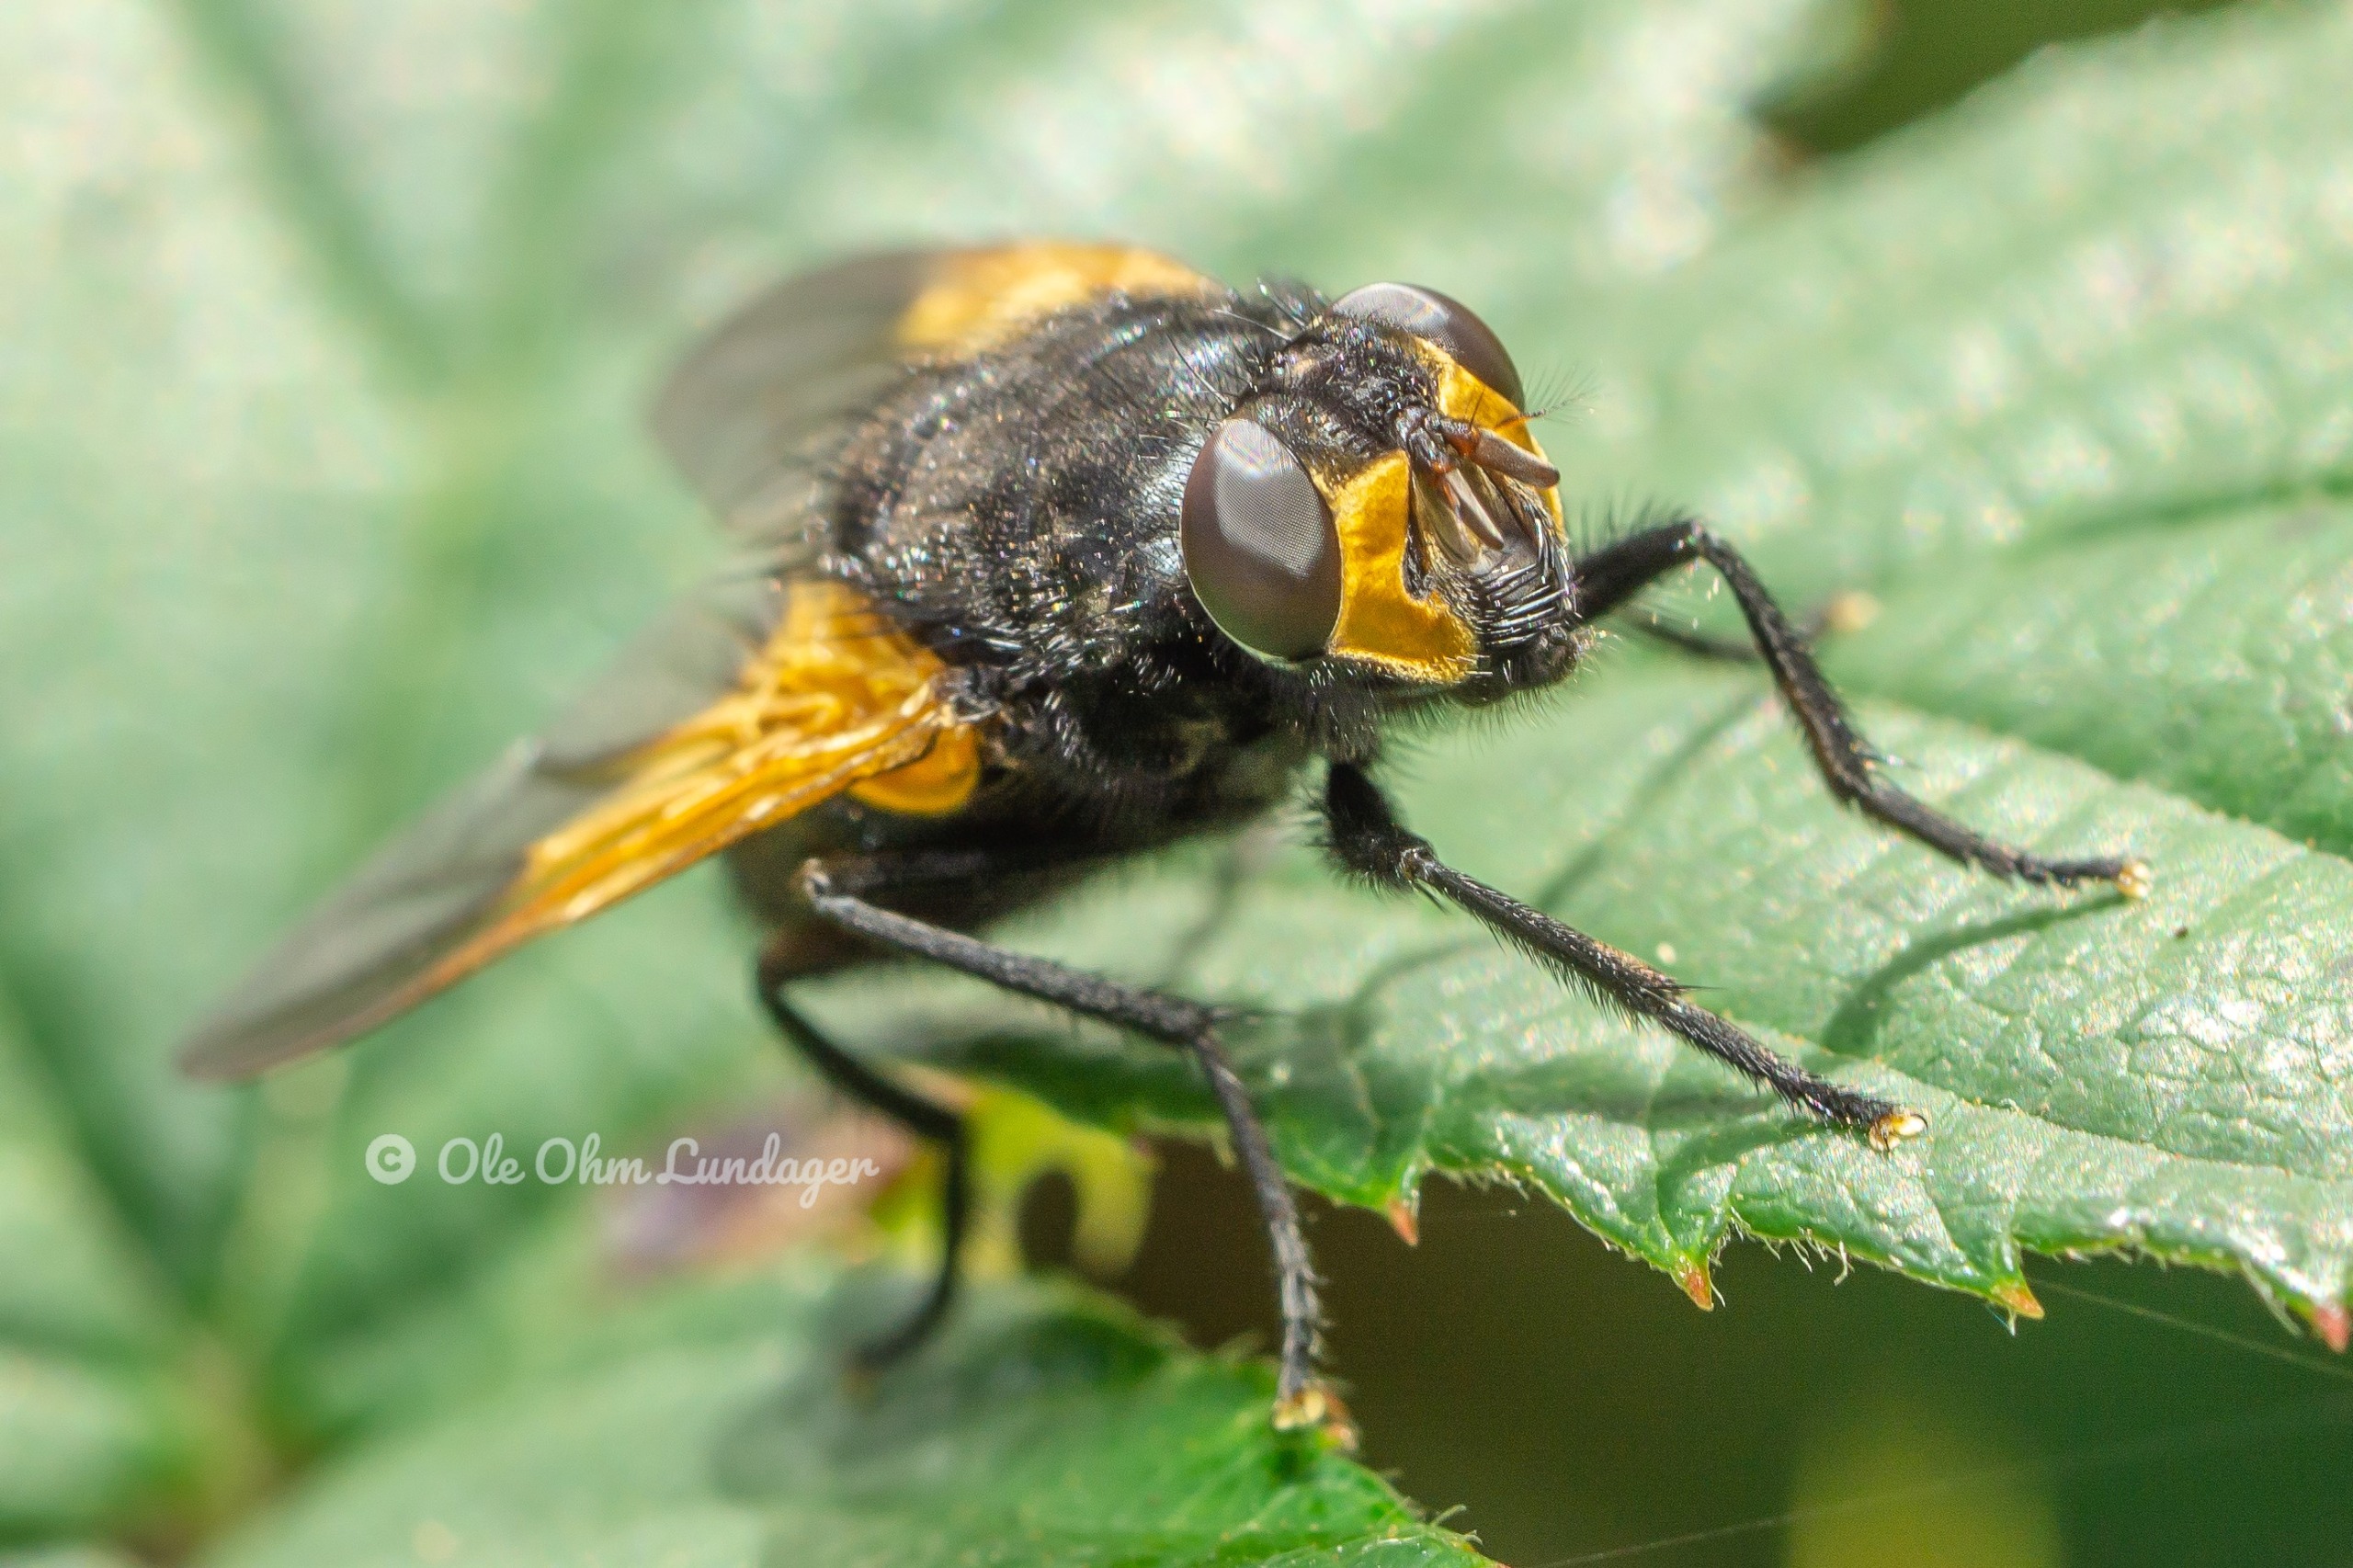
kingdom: Animalia
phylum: Arthropoda
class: Insecta
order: Diptera
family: Muscidae
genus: Mesembrina
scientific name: Mesembrina meridiana
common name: Gulvinget flue
